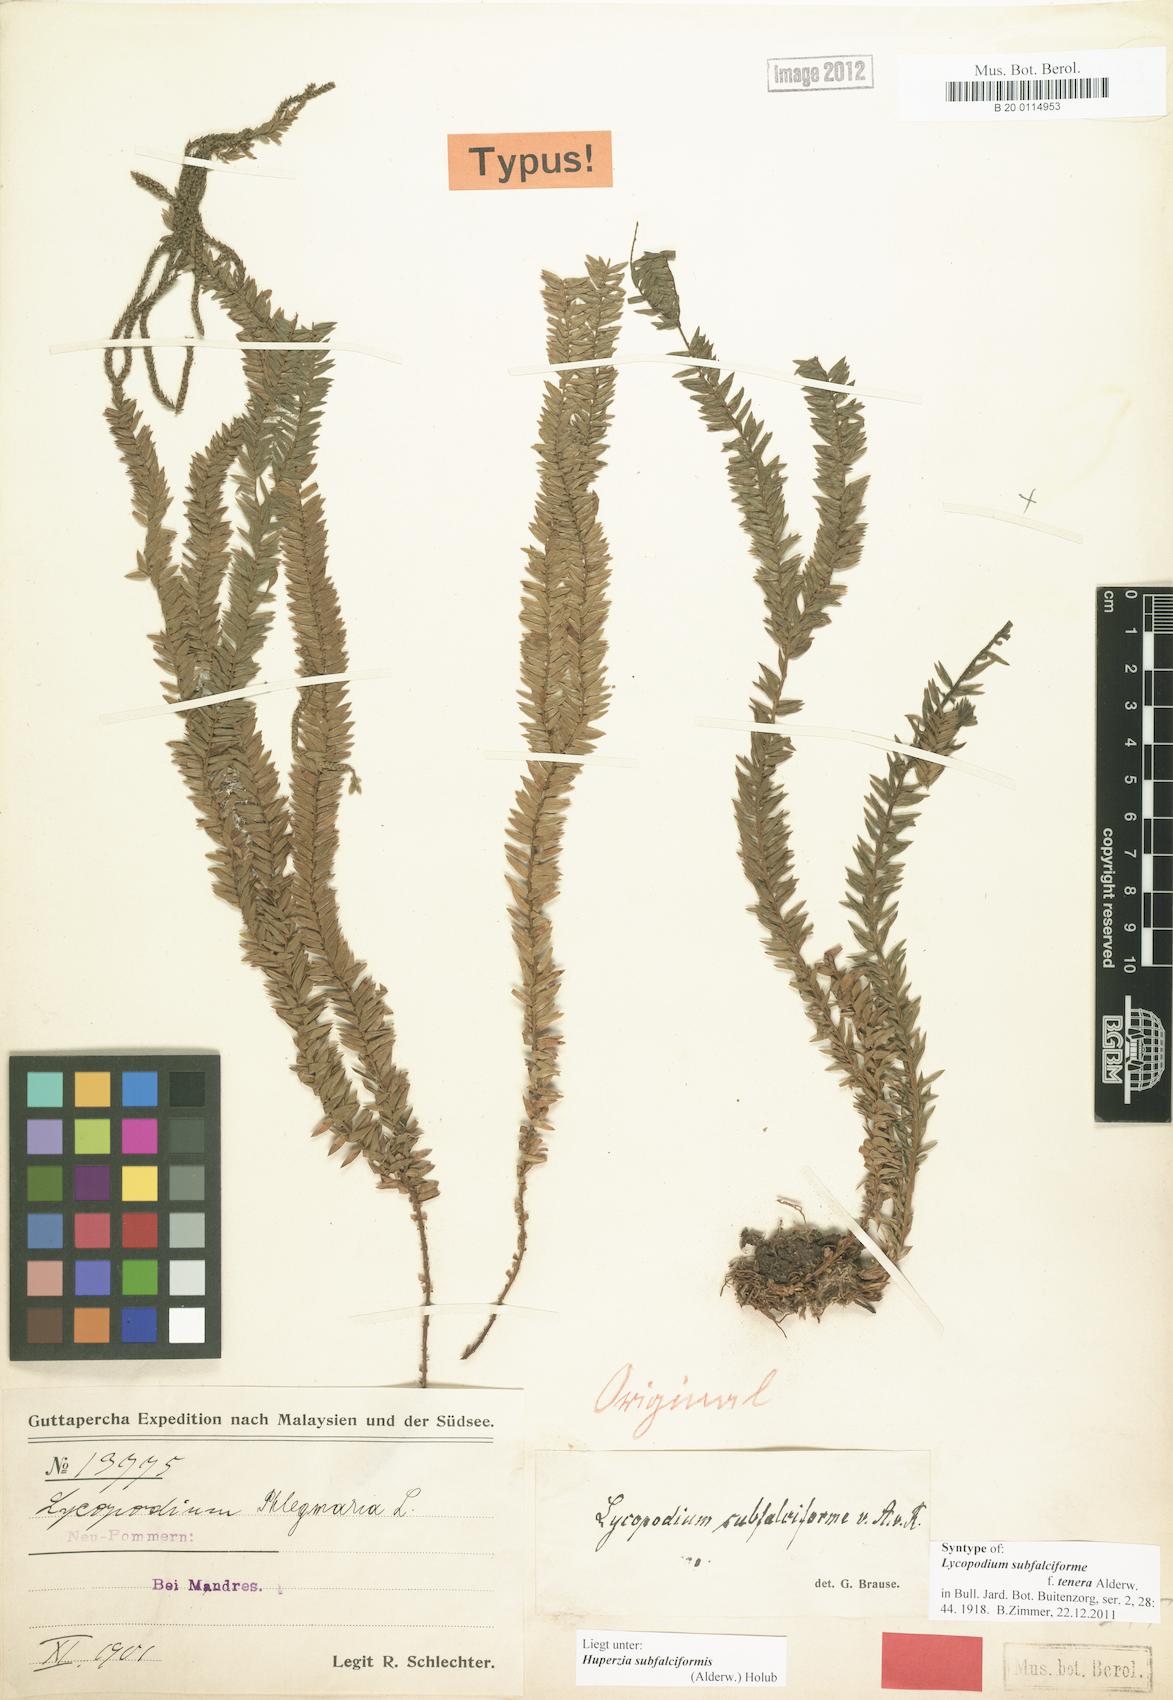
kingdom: Plantae
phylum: Tracheophyta
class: Lycopodiopsida
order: Lycopodiales
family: Lycopodiaceae
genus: Phlegmariurus
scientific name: Phlegmariurus subfalciformis
